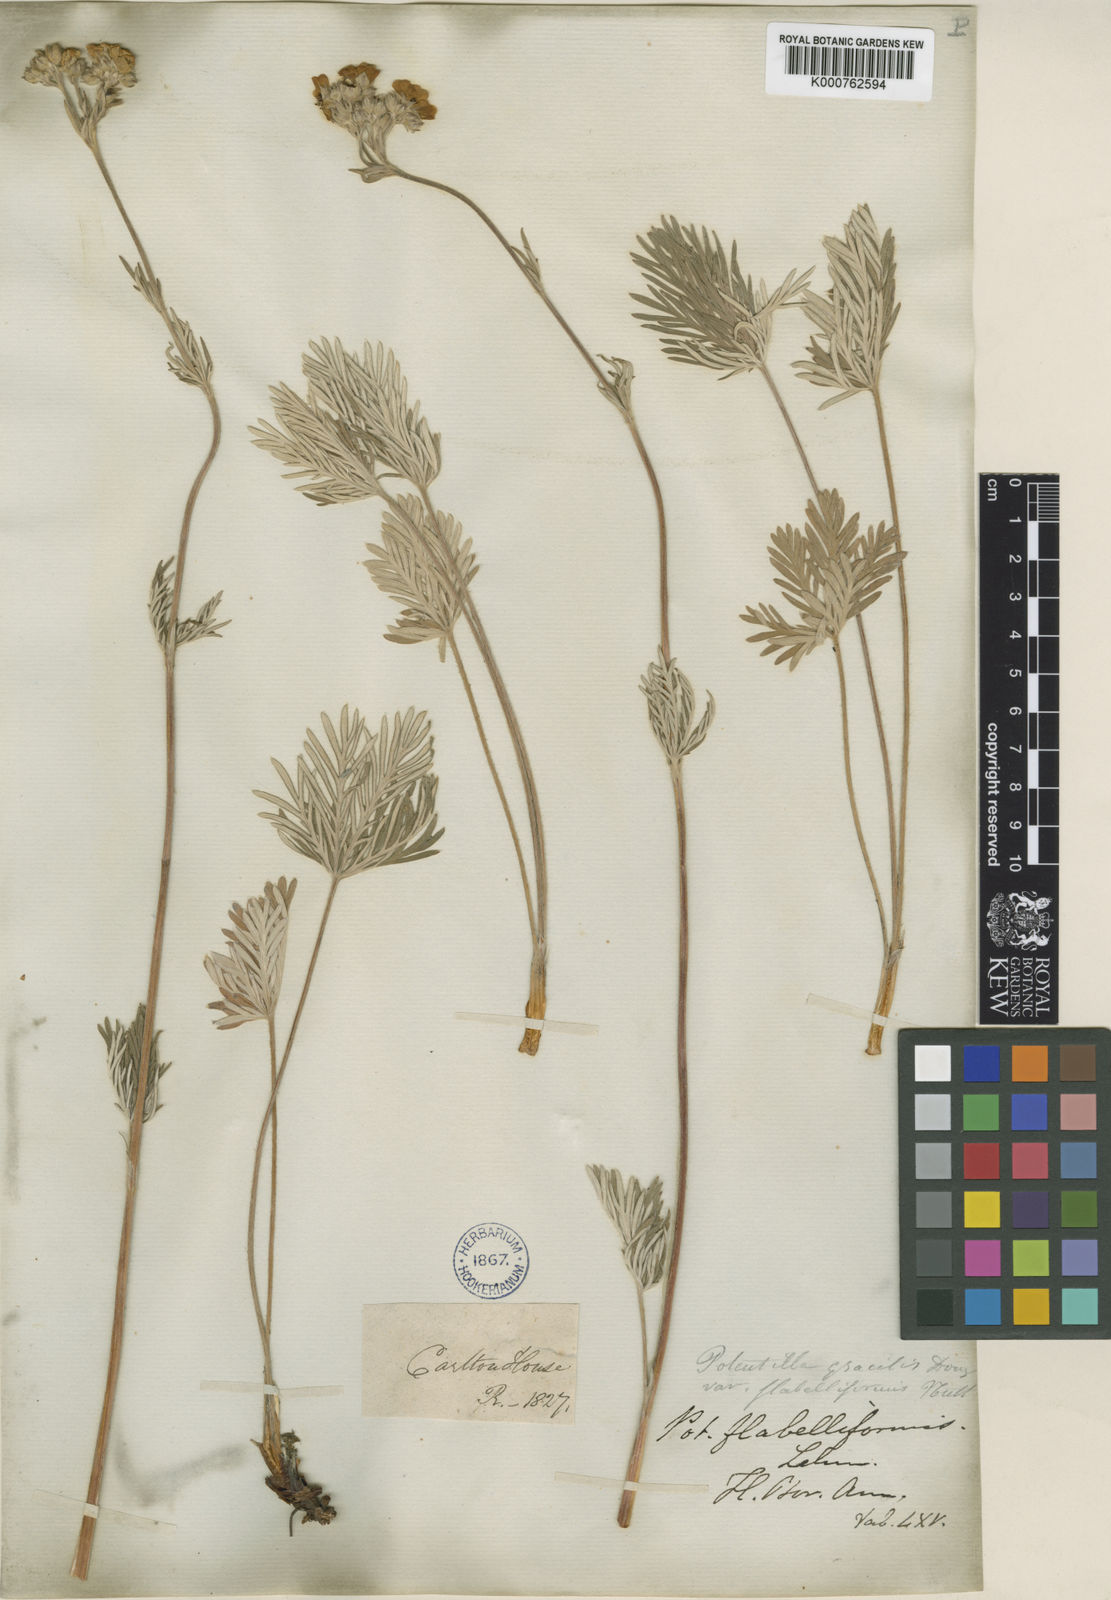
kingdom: Plantae
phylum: Tracheophyta
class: Magnoliopsida
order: Rosales
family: Rosaceae
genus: Potentilla
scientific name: Potentilla gracilis
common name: Graceful cinquefoil
